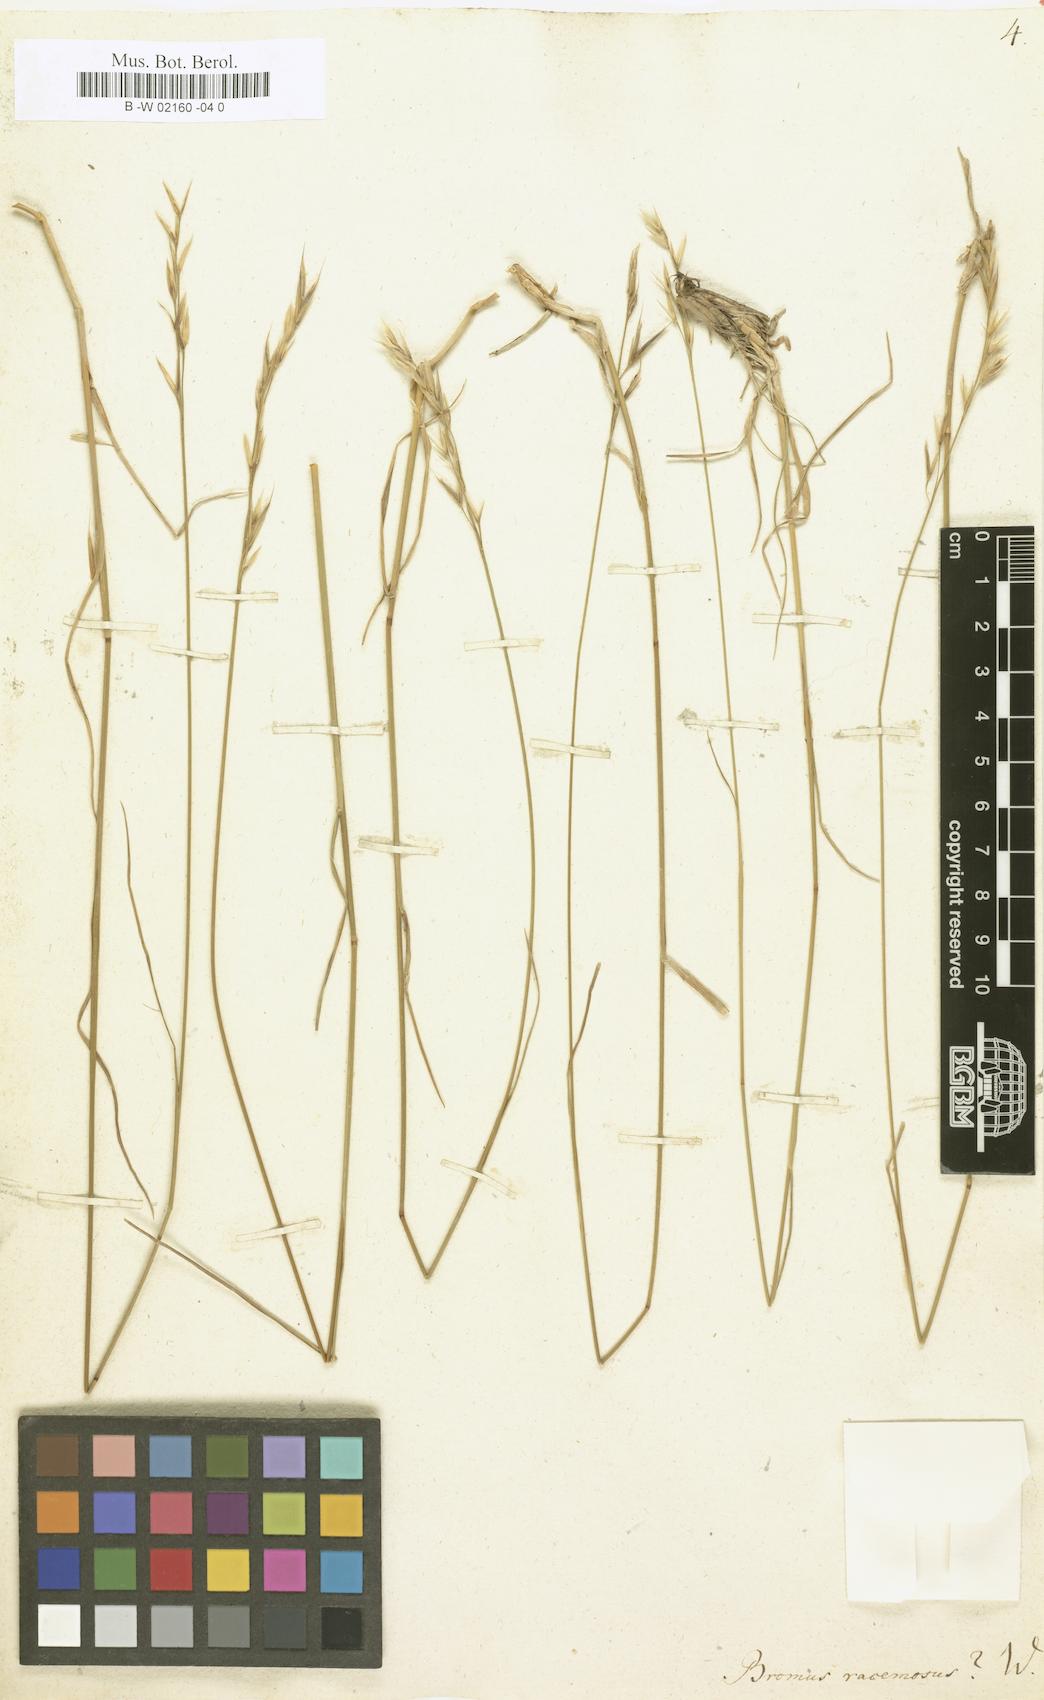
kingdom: Plantae
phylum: Tracheophyta
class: Liliopsida
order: Poales
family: Poaceae
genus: Bromus
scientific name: Bromus racemosus
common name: Bald brome
